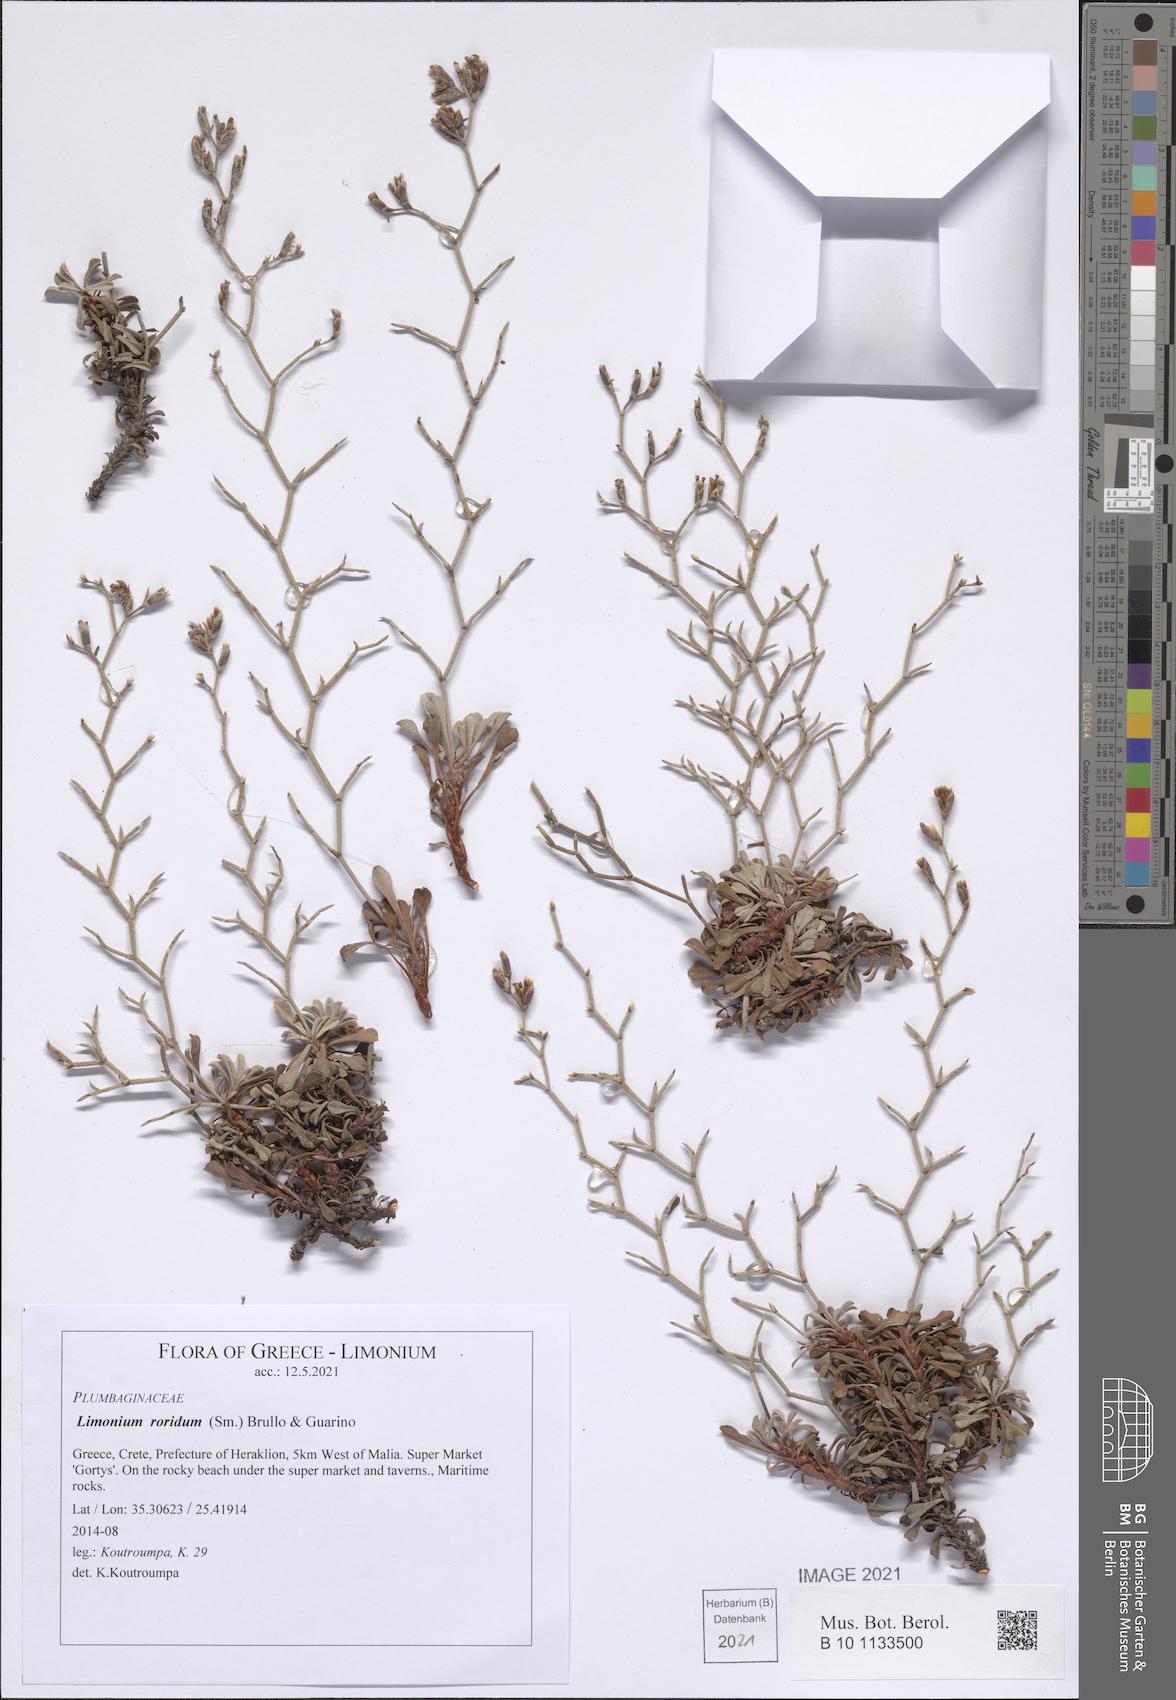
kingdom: Plantae
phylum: Tracheophyta
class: Magnoliopsida
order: Caryophyllales
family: Plumbaginaceae
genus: Limonium
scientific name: Limonium roridum
